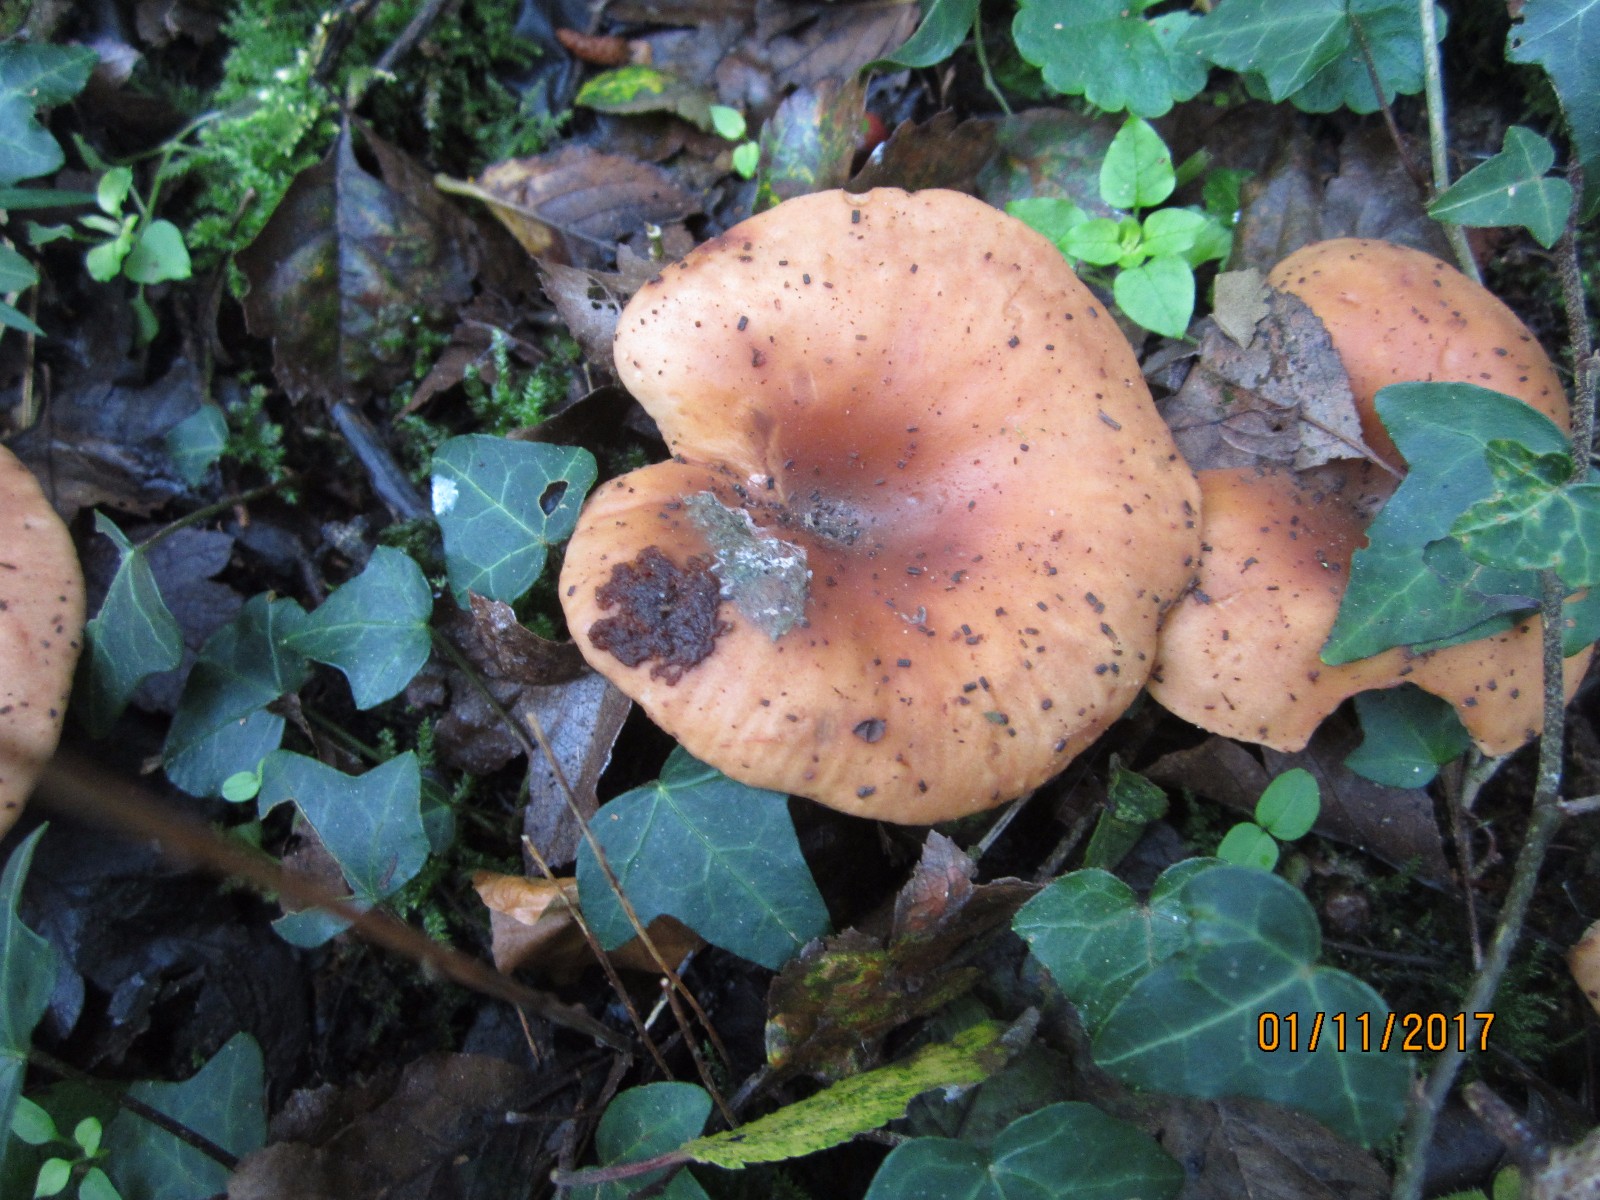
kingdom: Fungi
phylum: Basidiomycota
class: Agaricomycetes
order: Agaricales
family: Tricholomataceae
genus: Paralepista
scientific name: Paralepista flaccida
